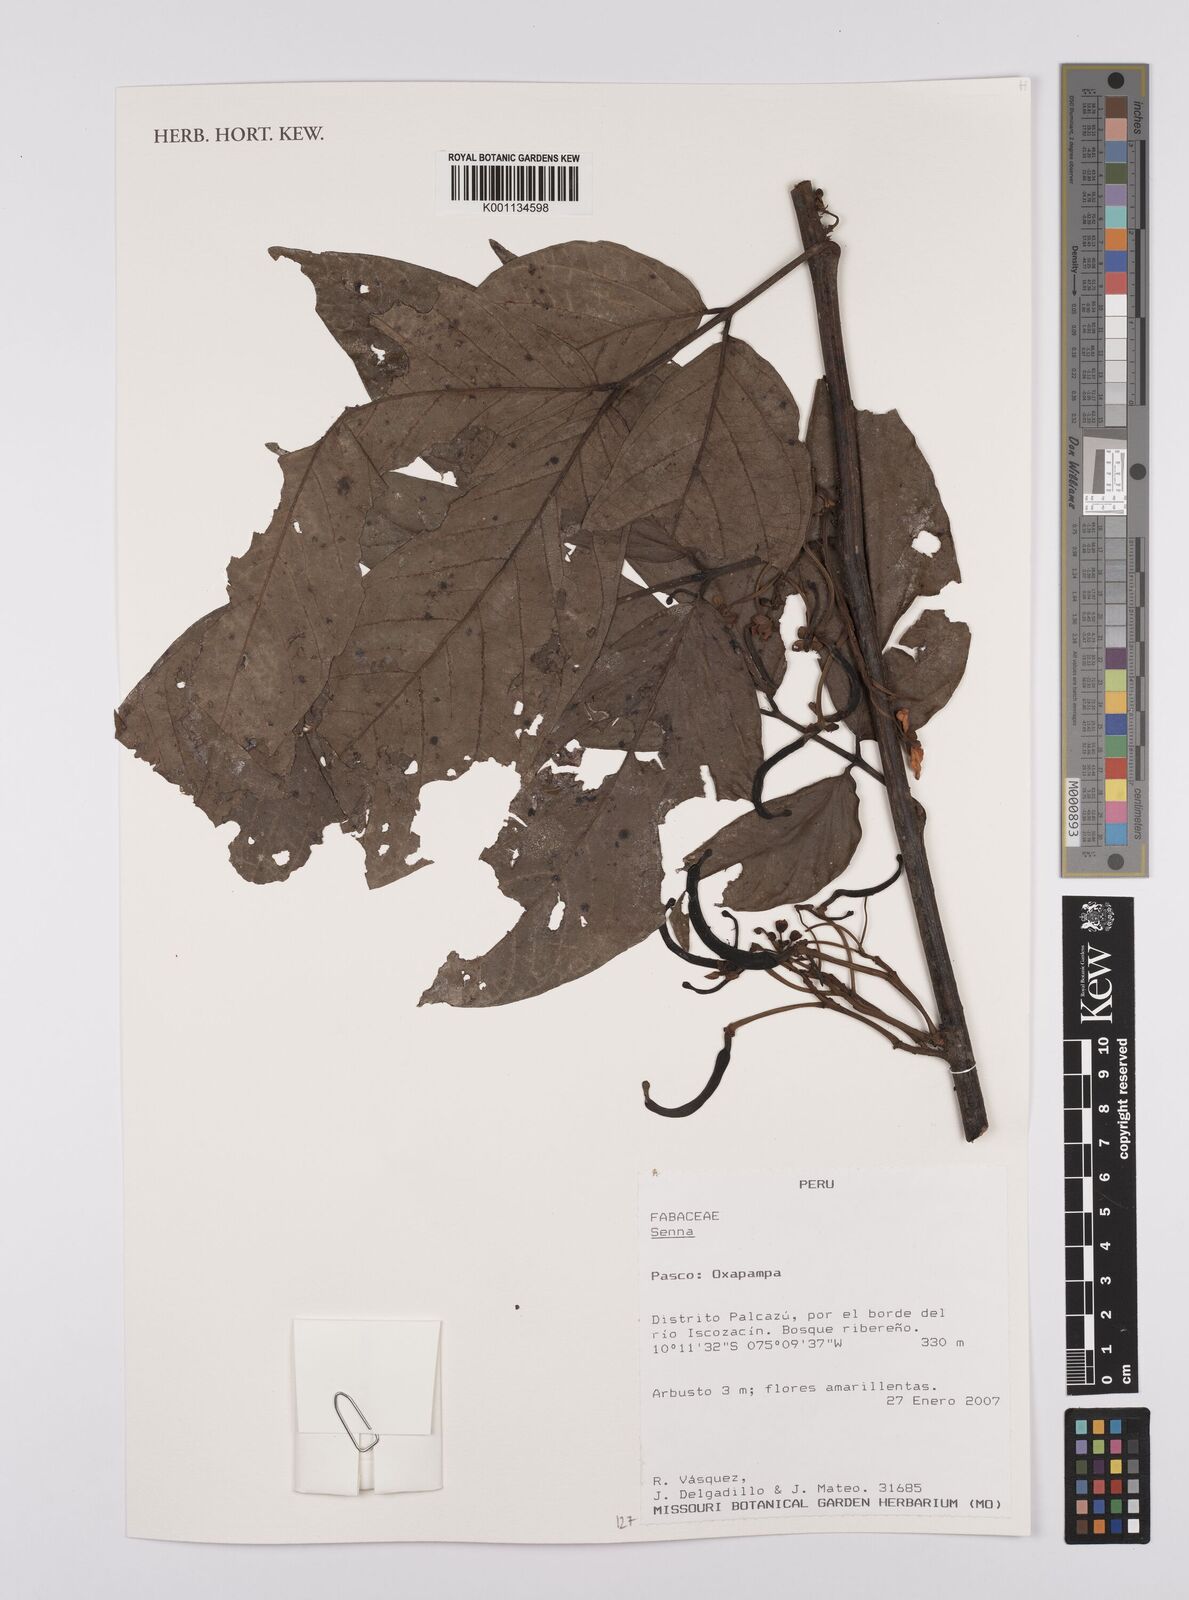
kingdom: Plantae
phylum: Tracheophyta
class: Magnoliopsida
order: Fabales
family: Fabaceae
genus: Senna
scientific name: Senna
